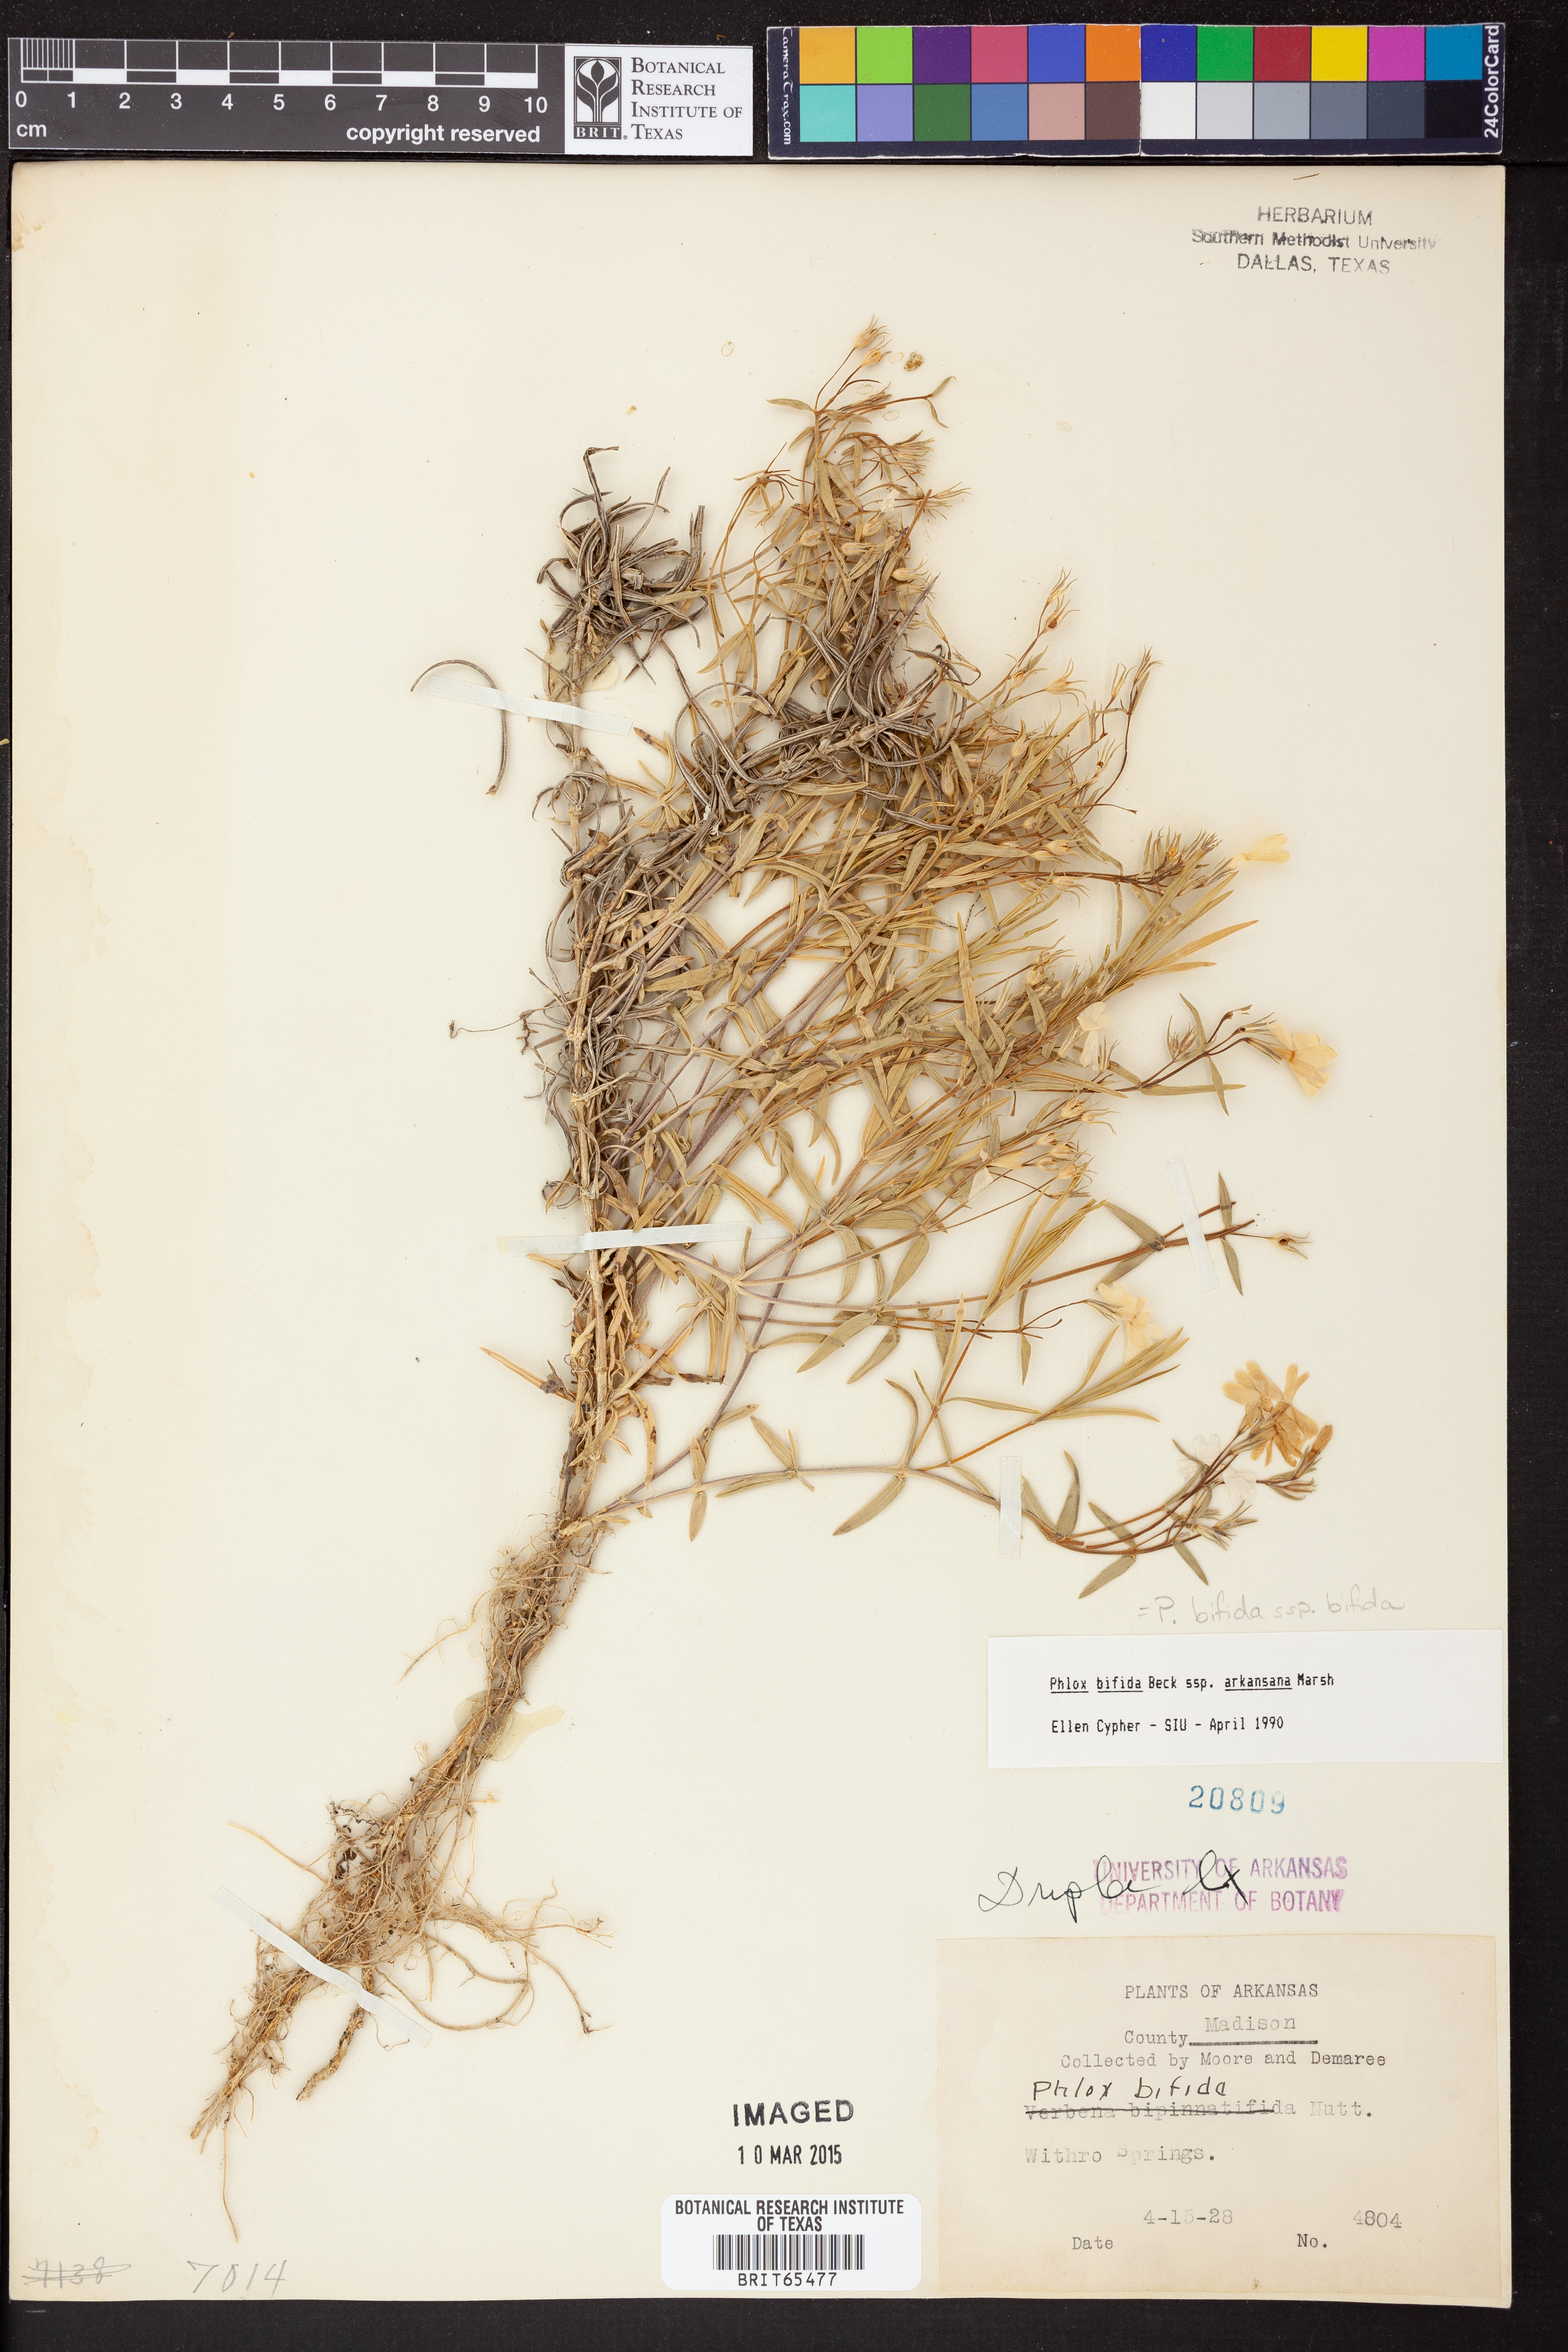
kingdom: Plantae
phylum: Tracheophyta
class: Magnoliopsida
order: Ericales
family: Polemoniaceae
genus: Phlox
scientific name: Phlox bifida
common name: Sand phlox
